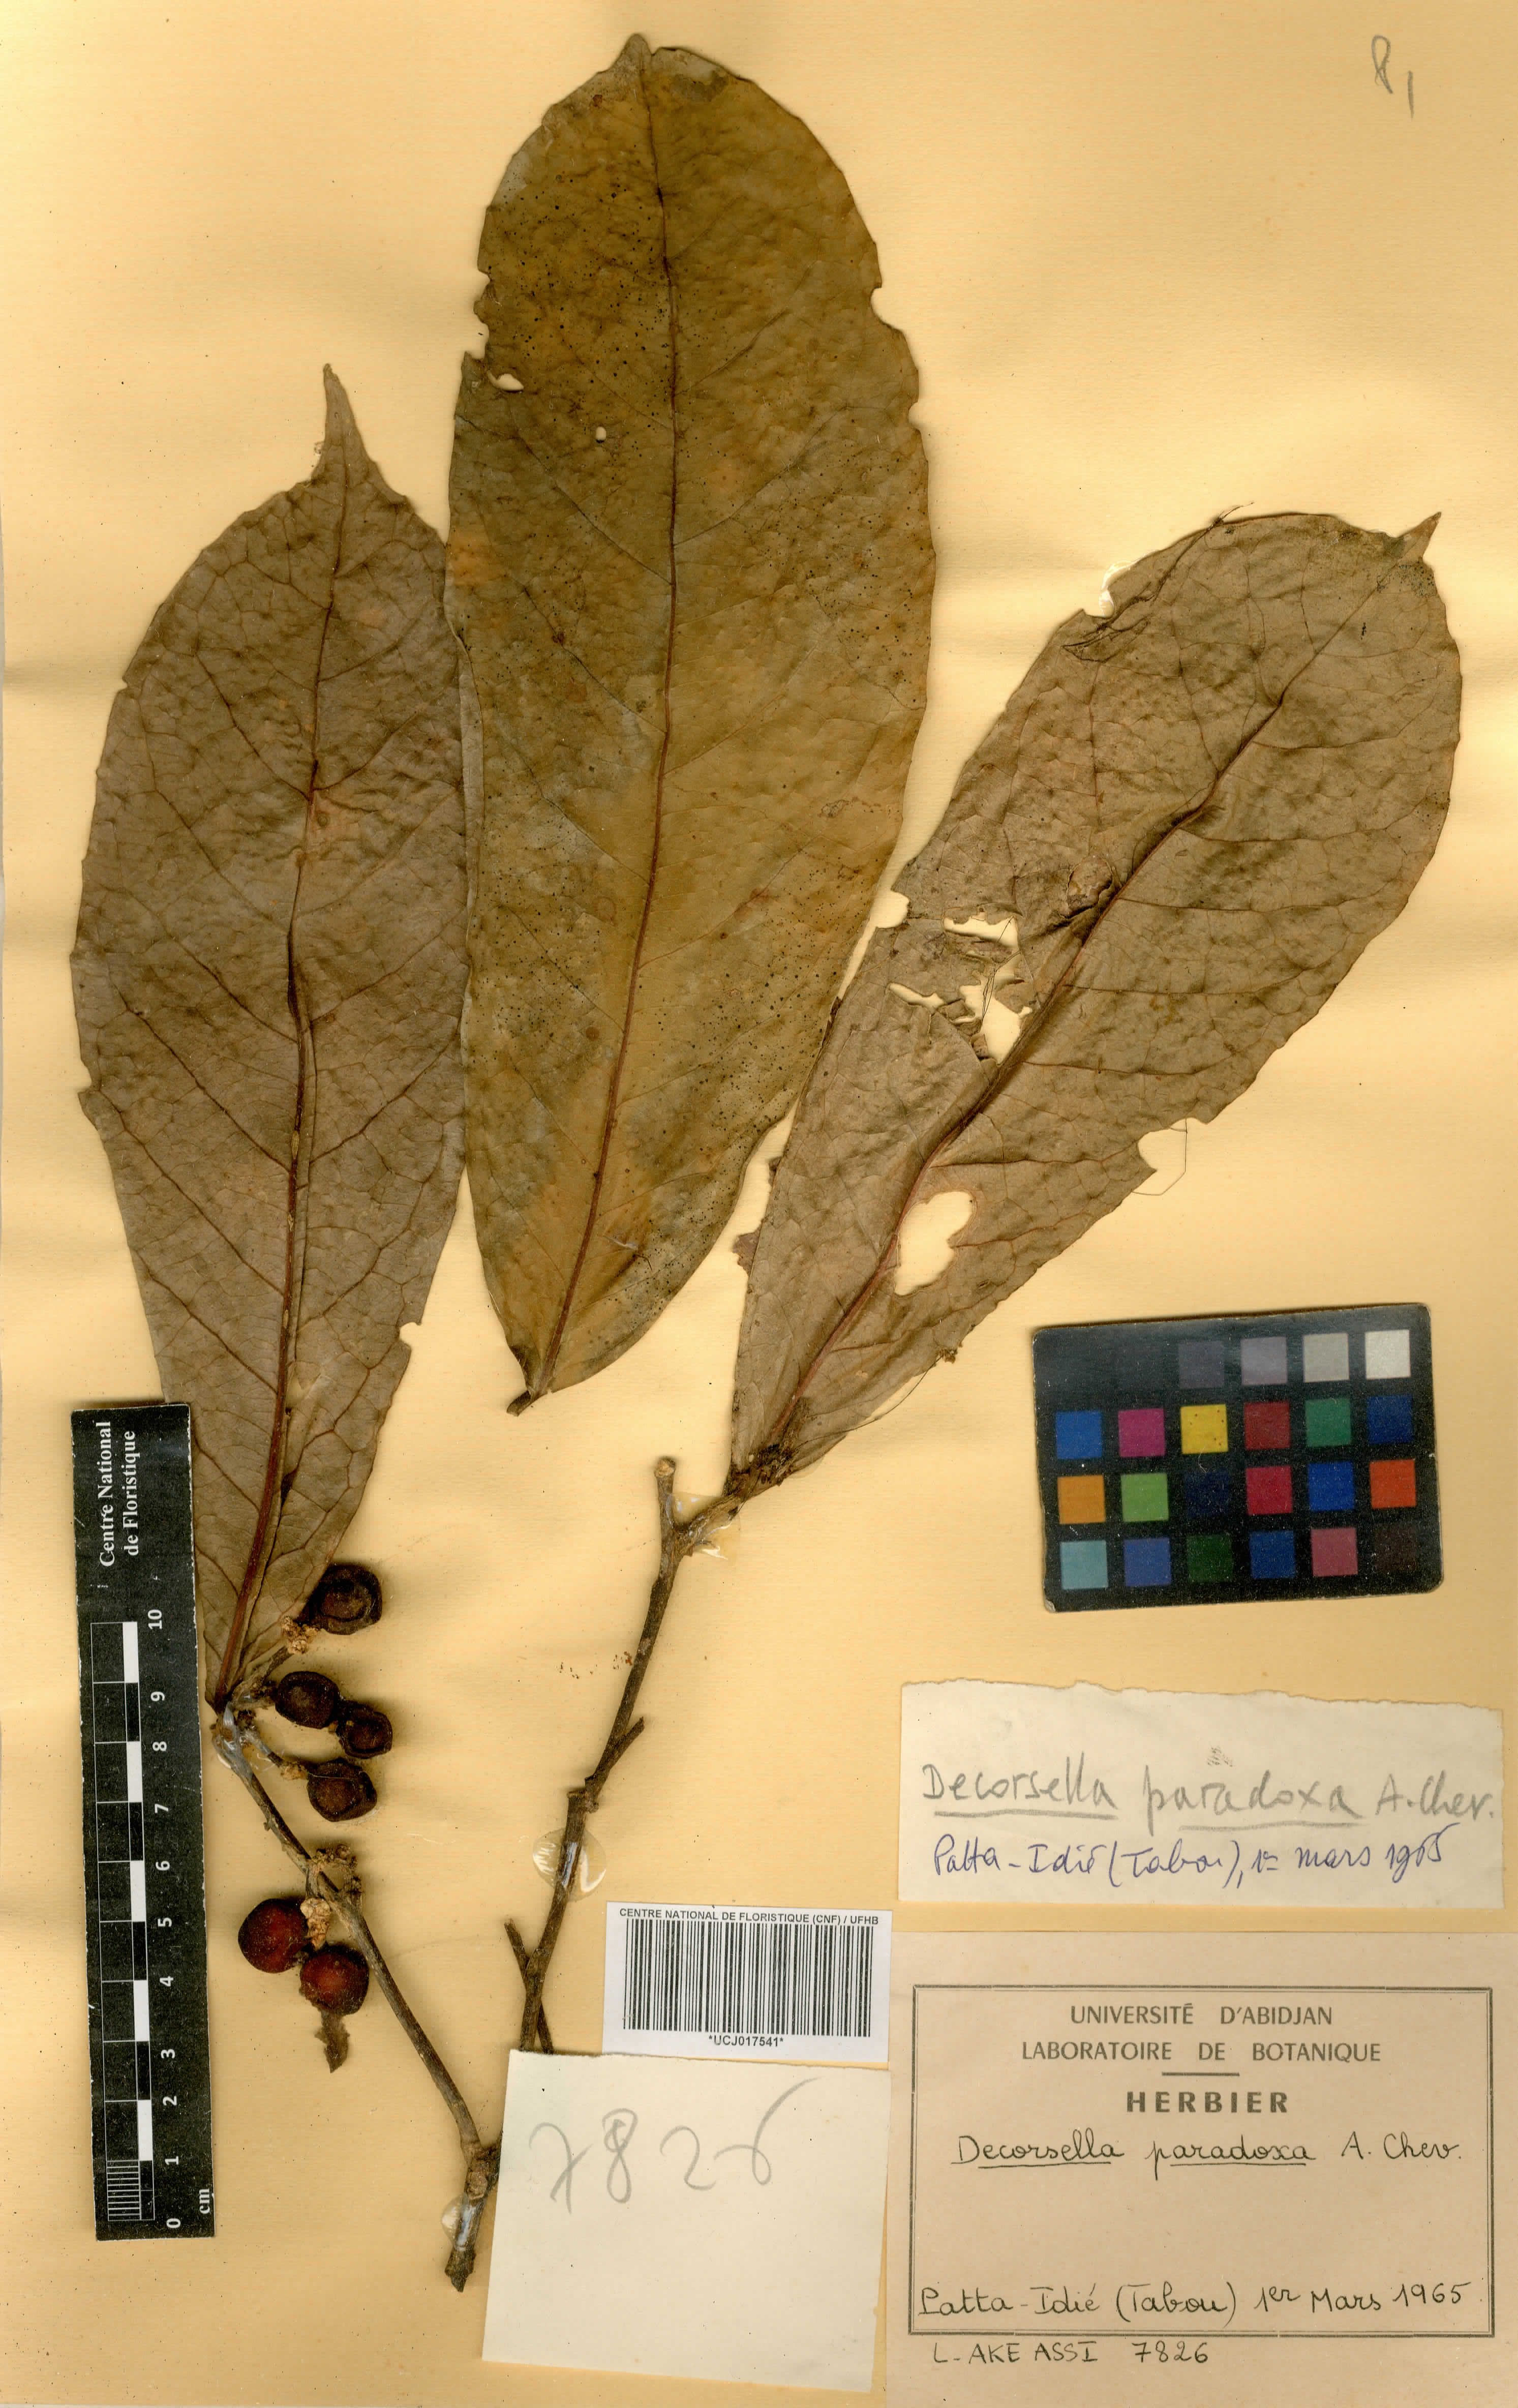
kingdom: Plantae
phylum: Tracheophyta
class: Magnoliopsida
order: Malpighiales
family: Violaceae
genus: Decorsella
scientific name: Decorsella paradoxa
